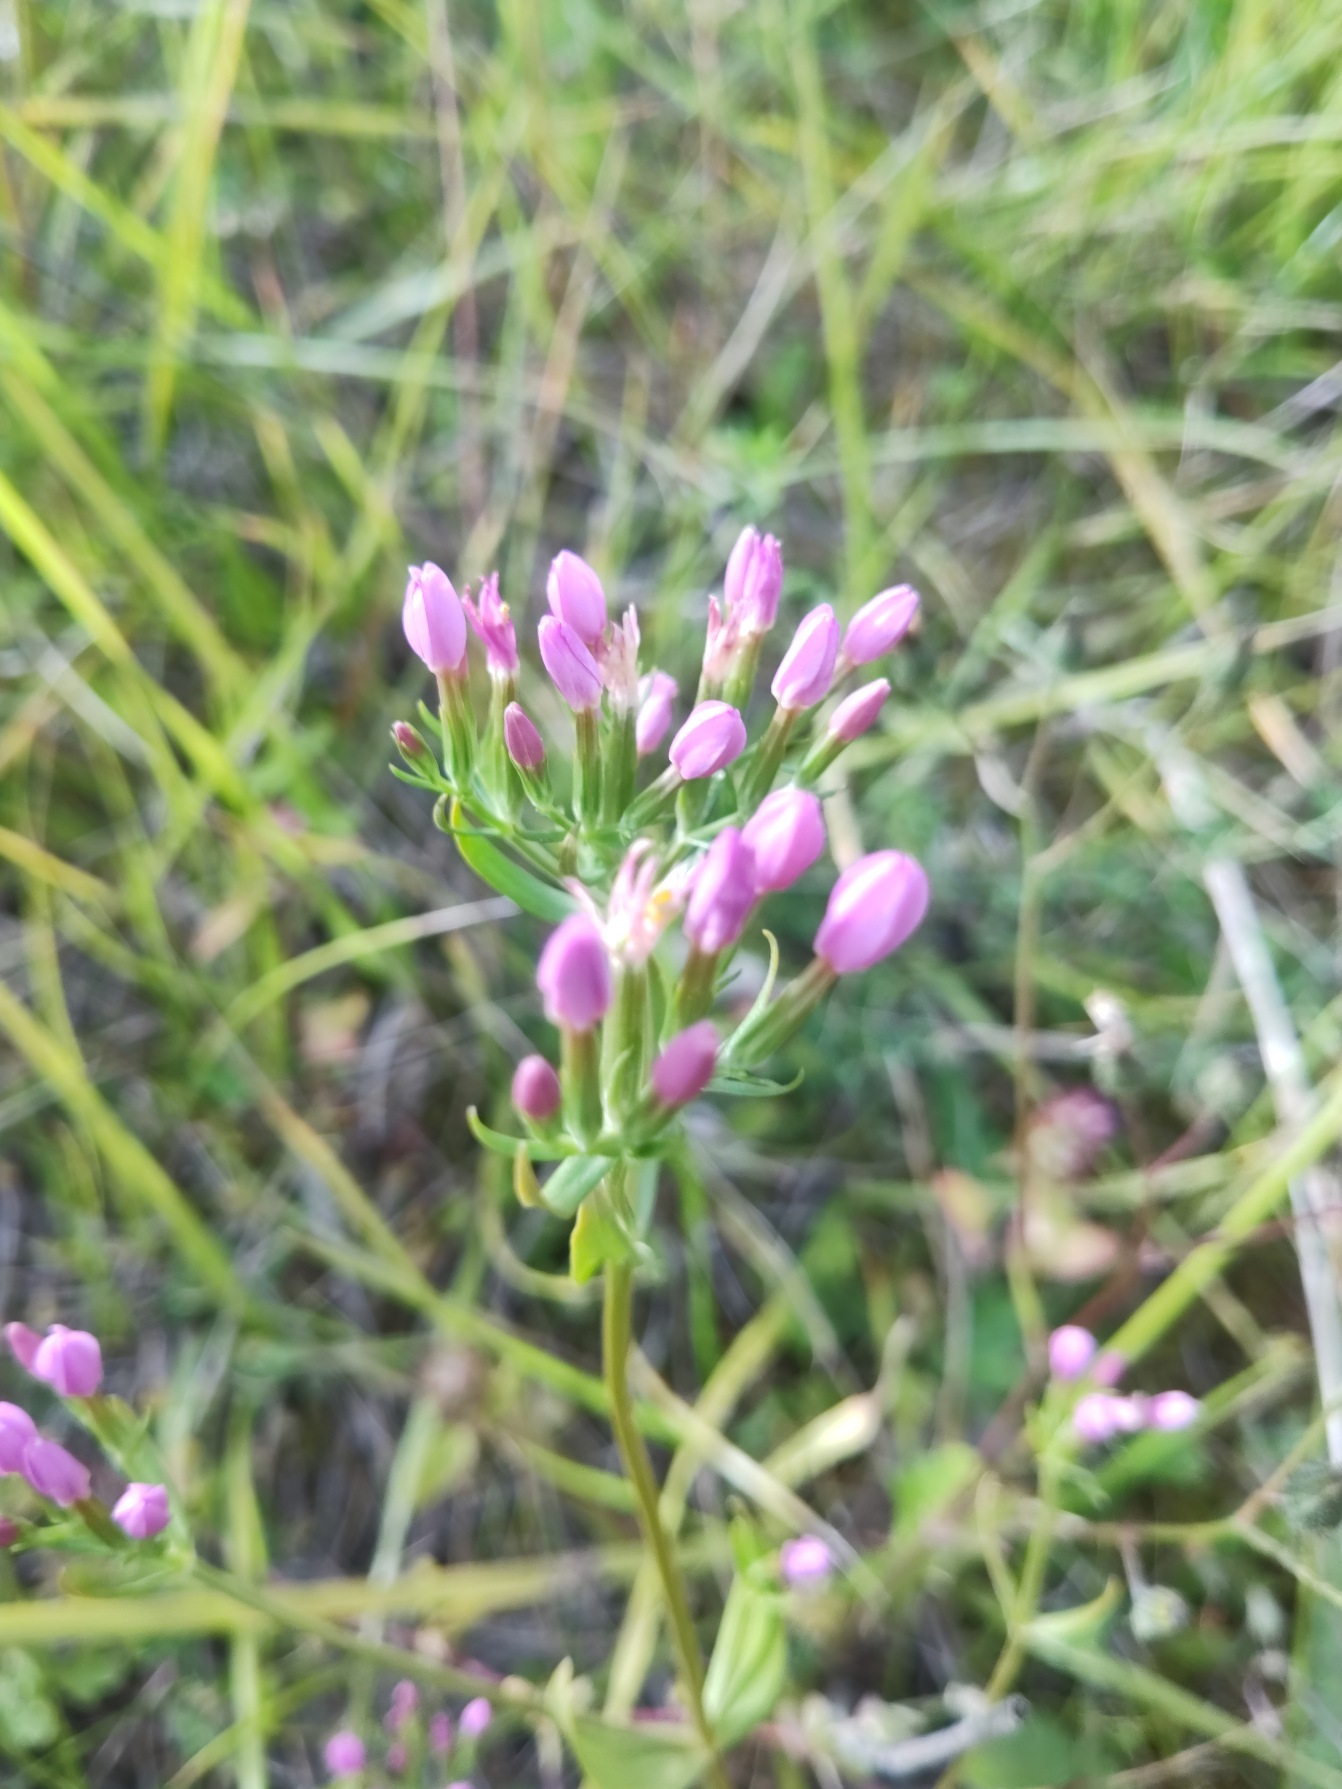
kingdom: Plantae
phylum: Tracheophyta
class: Magnoliopsida
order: Gentianales
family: Gentianaceae
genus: Centaurium
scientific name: Centaurium erythraea
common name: Mark-tusindgylden
